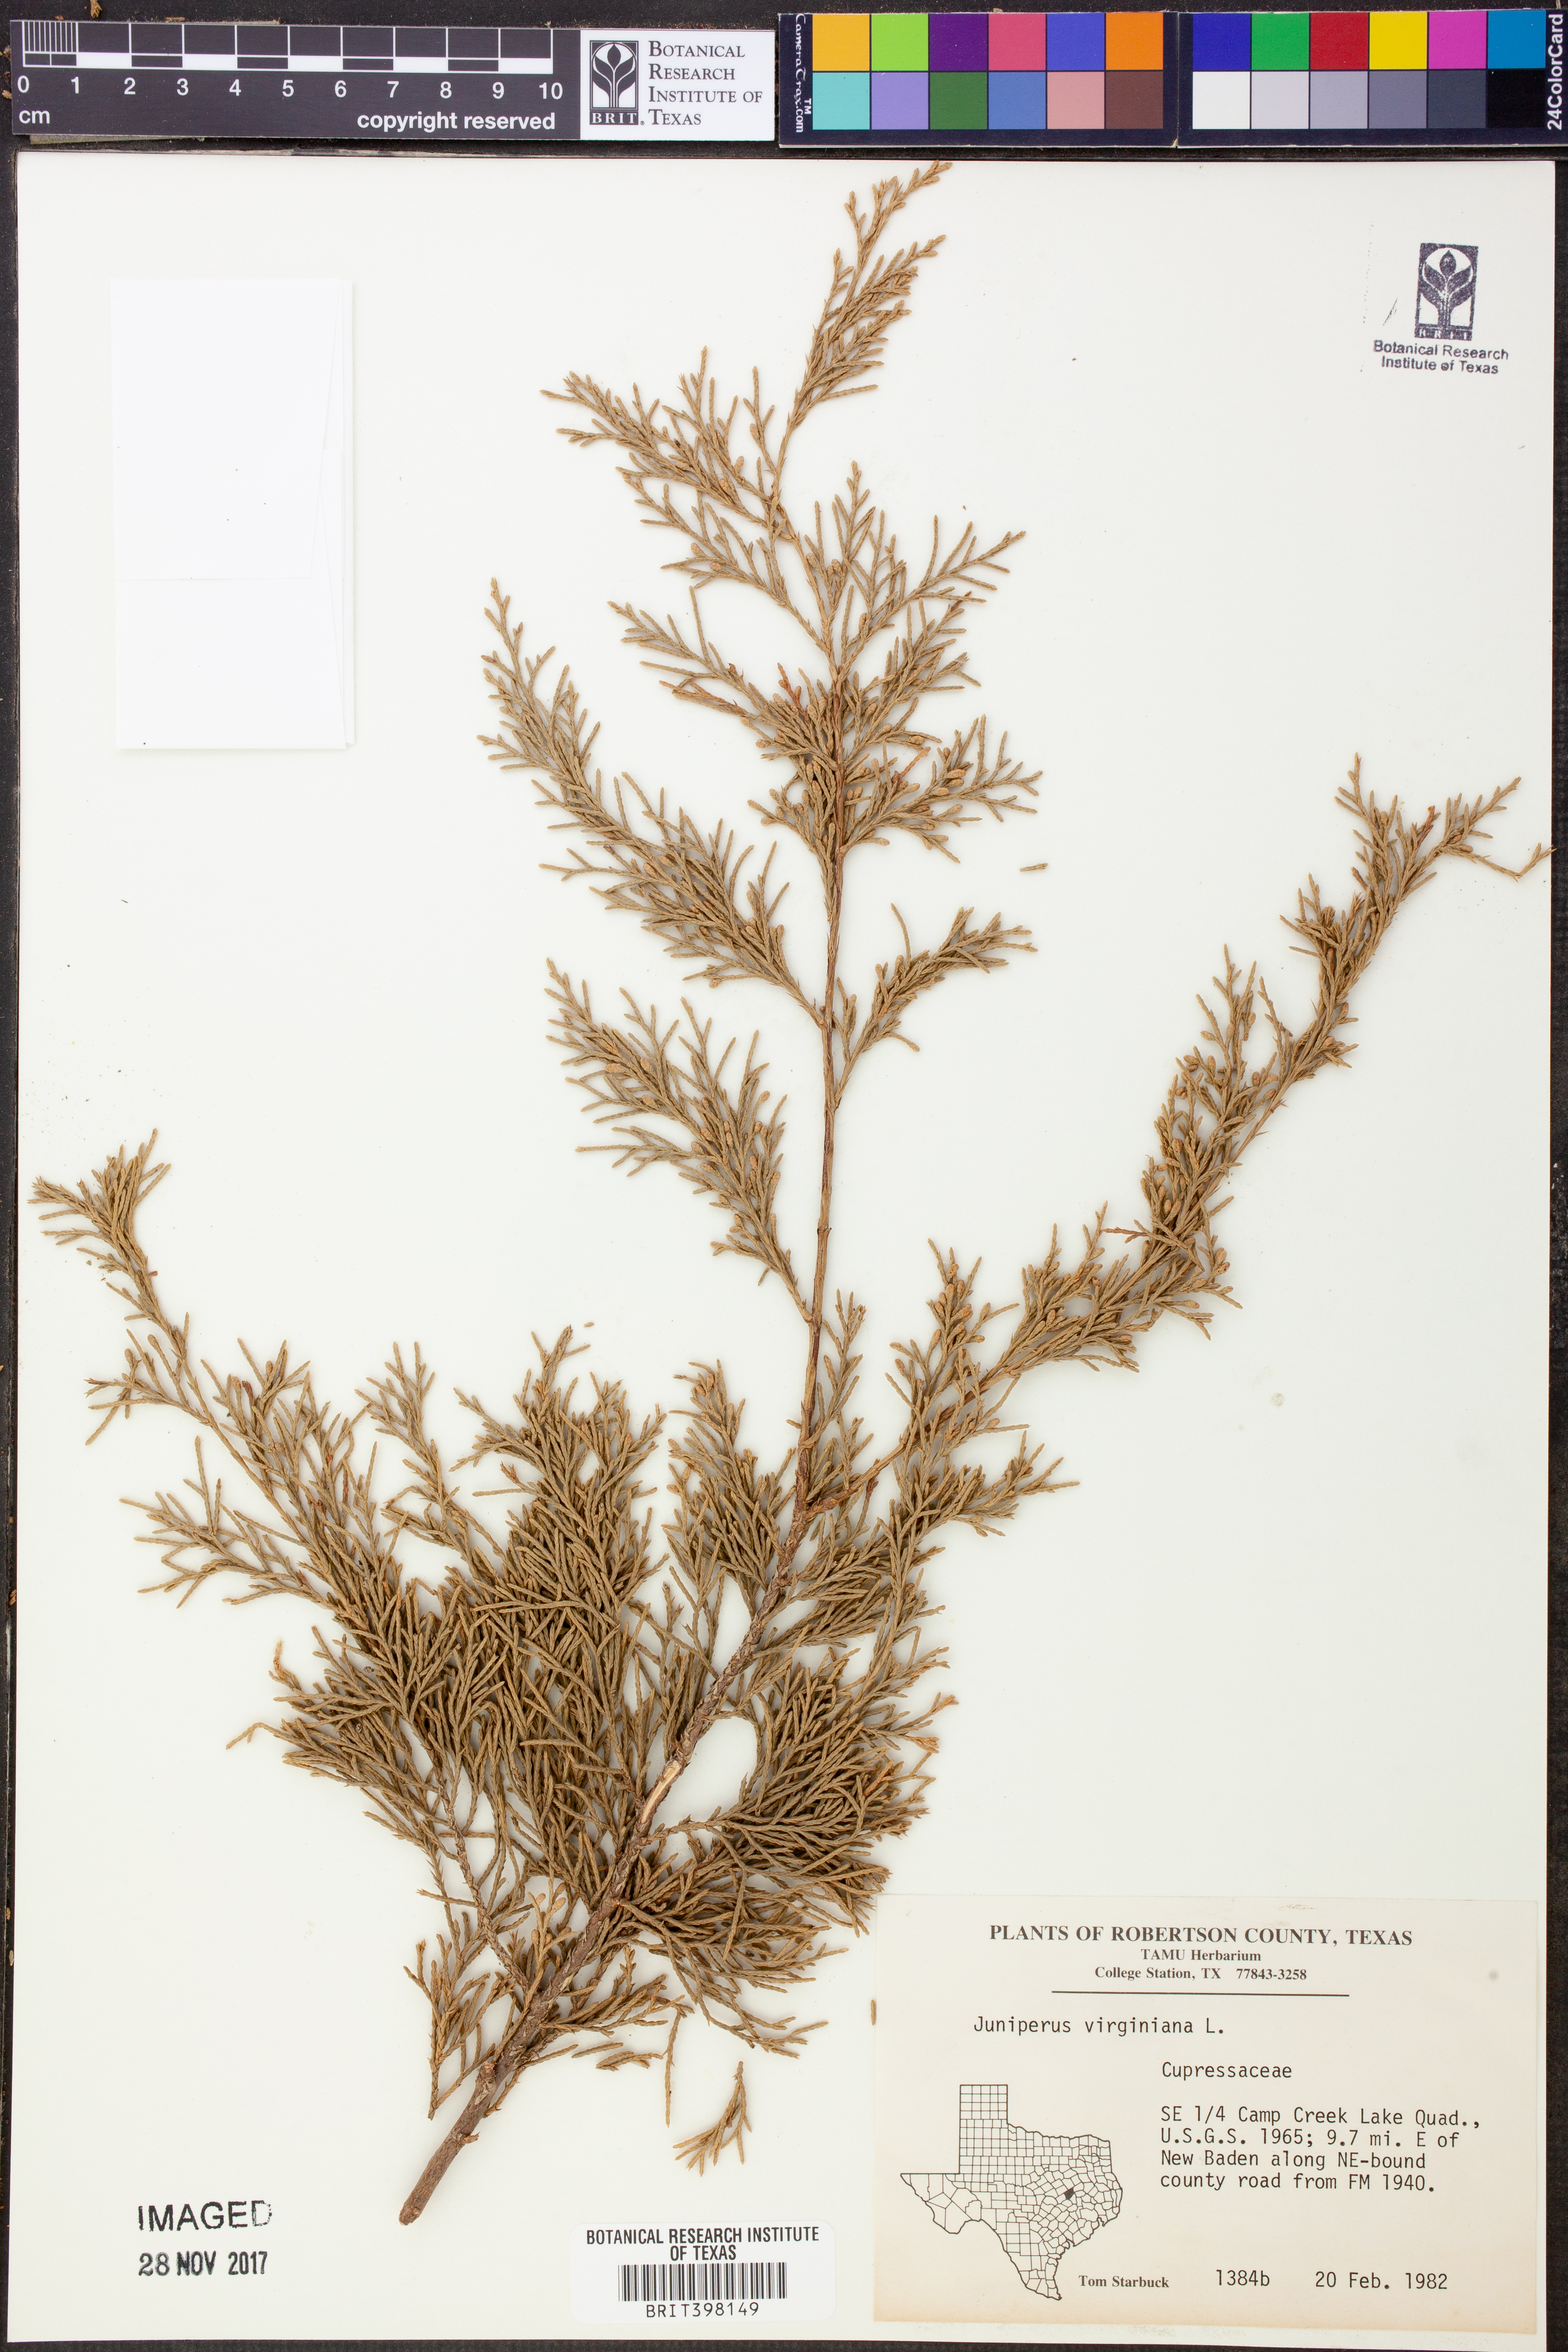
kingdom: Plantae
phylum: Tracheophyta
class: Pinopsida
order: Pinales
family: Cupressaceae
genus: Juniperus
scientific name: Juniperus virginiana
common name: Red juniper
